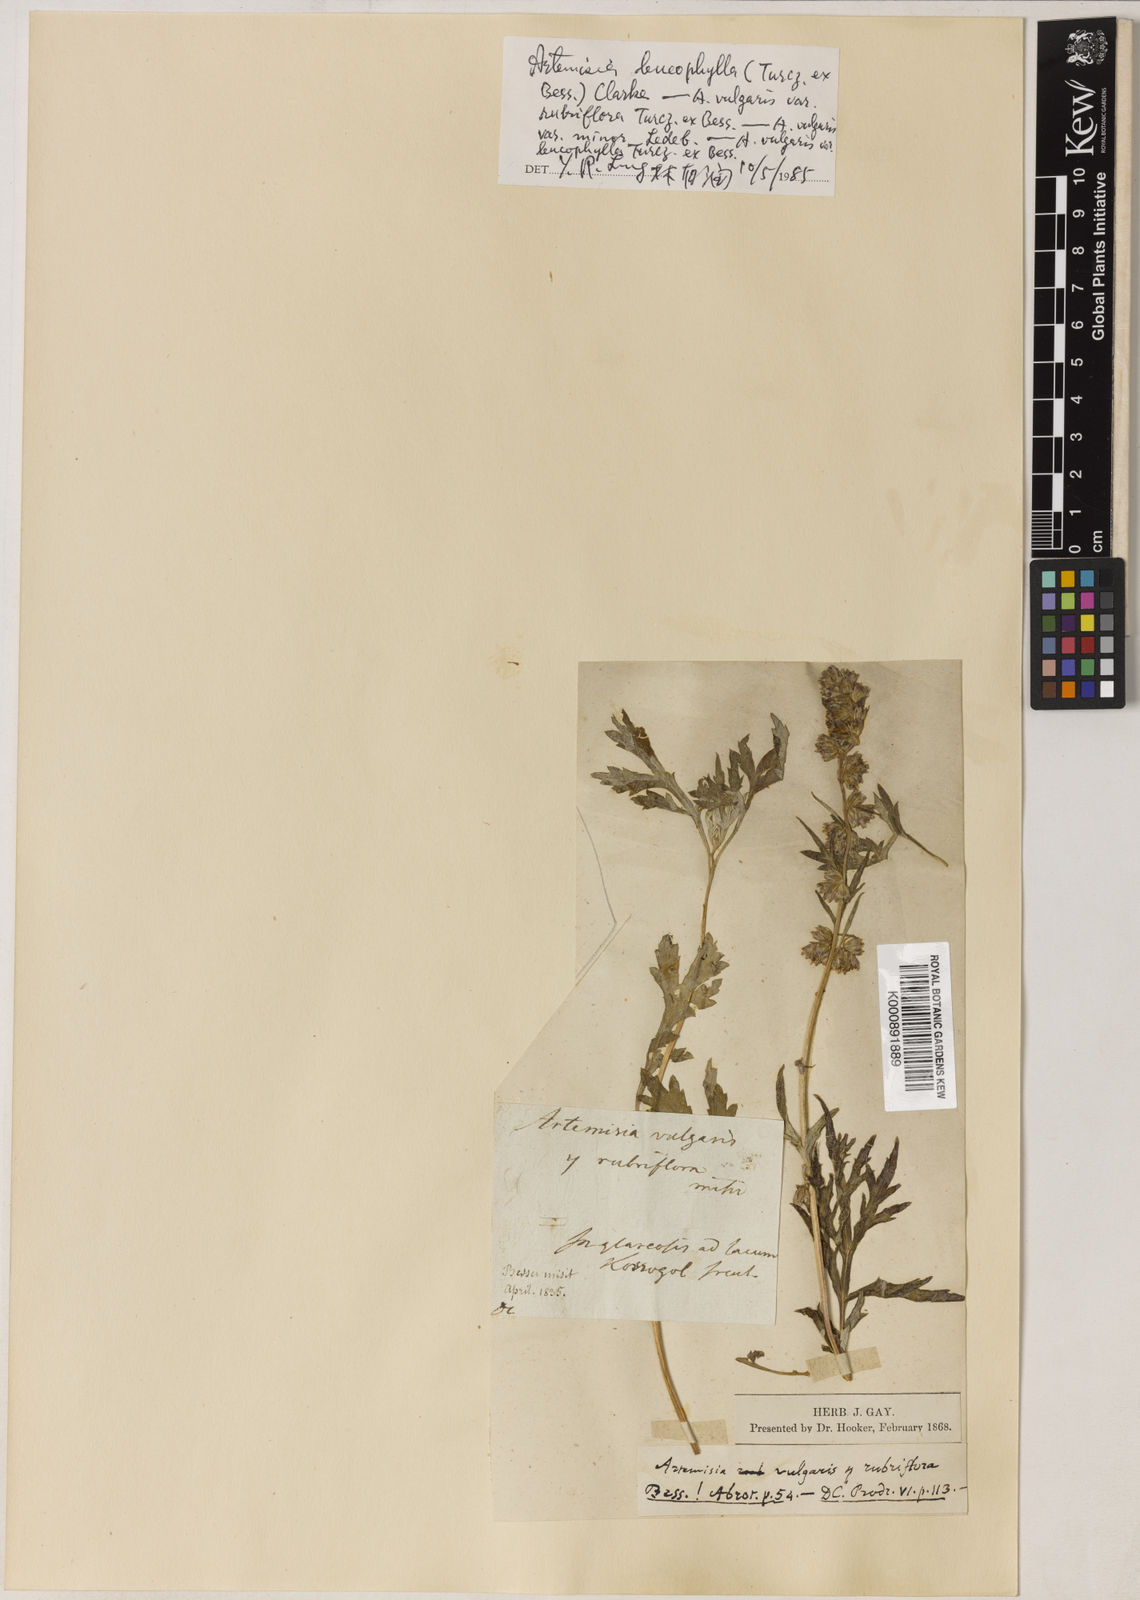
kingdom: Plantae
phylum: Tracheophyta
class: Magnoliopsida
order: Asterales
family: Asteraceae
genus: Artemisia
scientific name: Artemisia leucophylla
